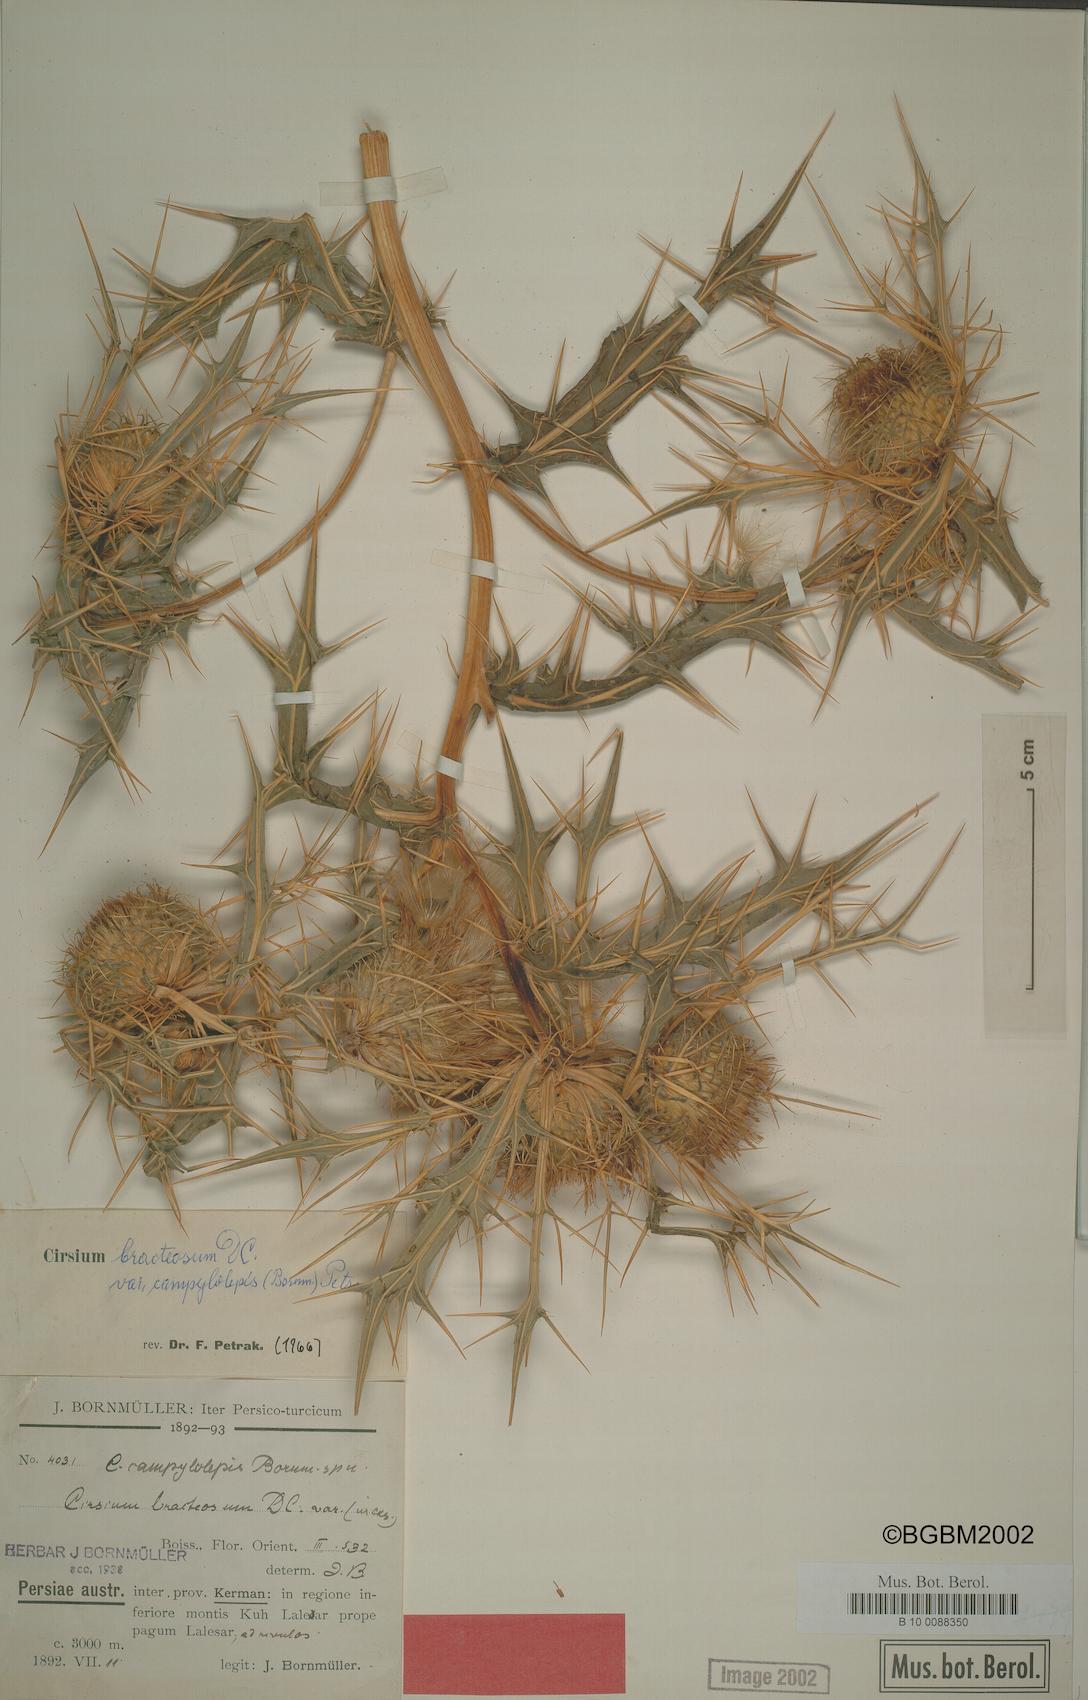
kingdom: Plantae
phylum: Tracheophyta
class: Magnoliopsida
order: Asterales
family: Asteraceae
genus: Cirsium
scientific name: Cirsium bracteosum
